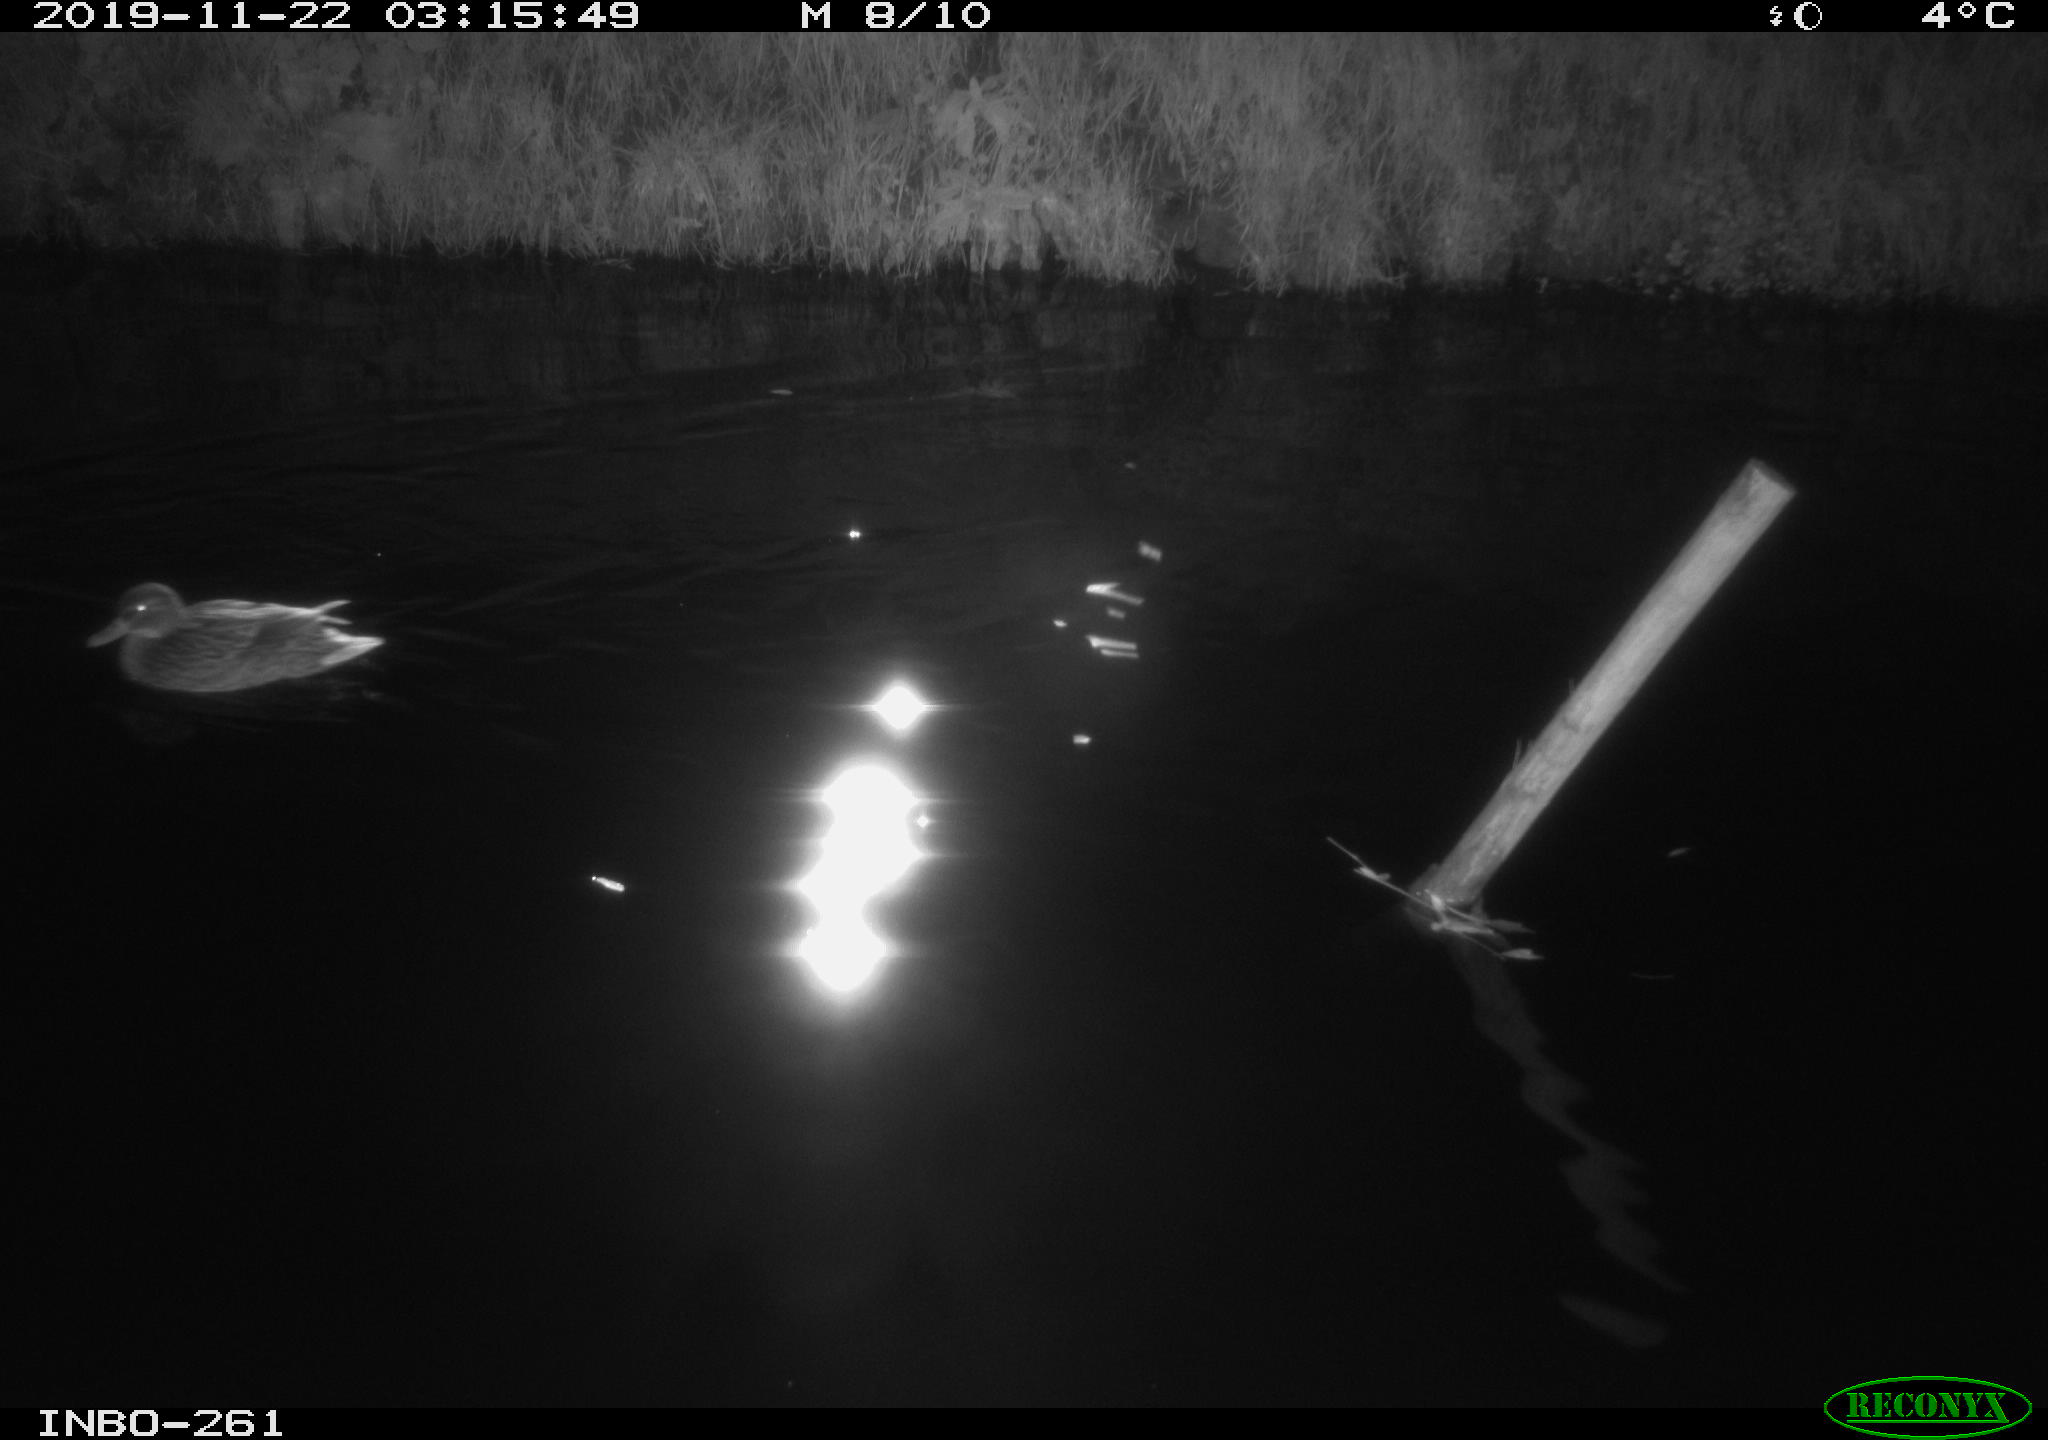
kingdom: Animalia
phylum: Chordata
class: Aves
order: Anseriformes
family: Anatidae
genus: Anas
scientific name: Anas platyrhynchos
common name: Mallard
